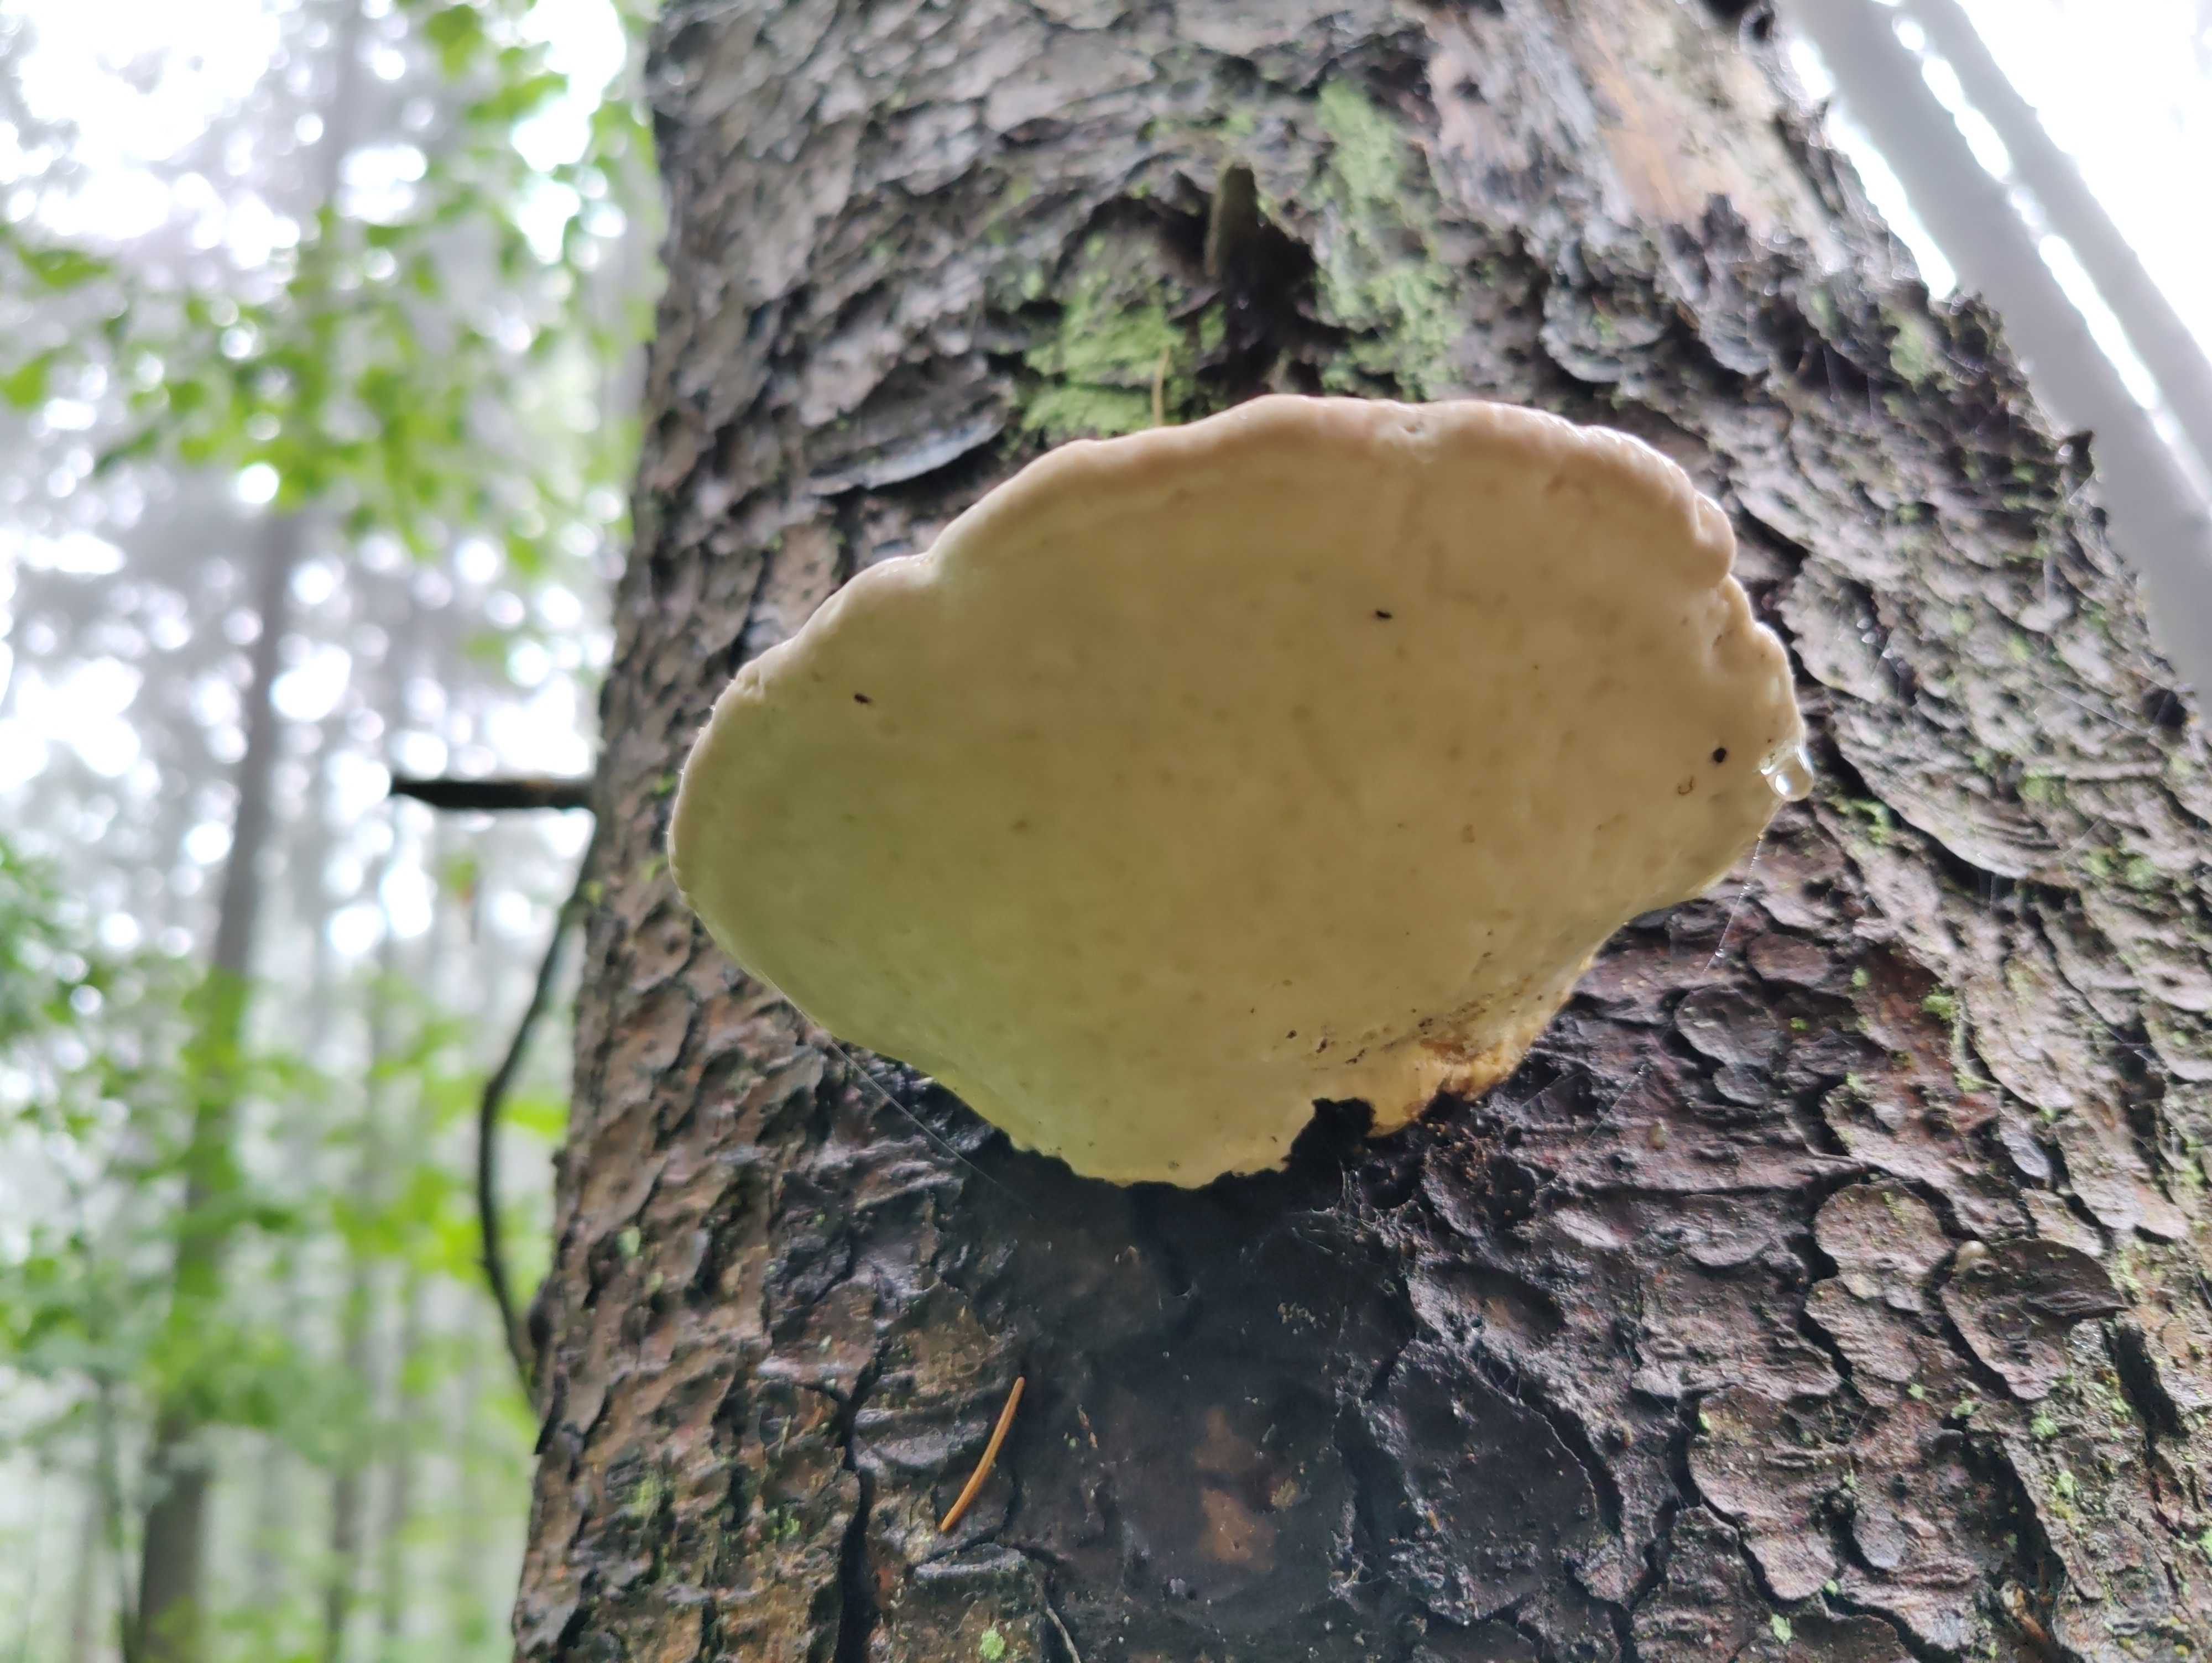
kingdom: Fungi
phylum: Basidiomycota
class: Agaricomycetes
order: Polyporales
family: Fomitopsidaceae
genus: Fomitopsis
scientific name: Fomitopsis pinicola
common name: randbæltet hovporesvamp
